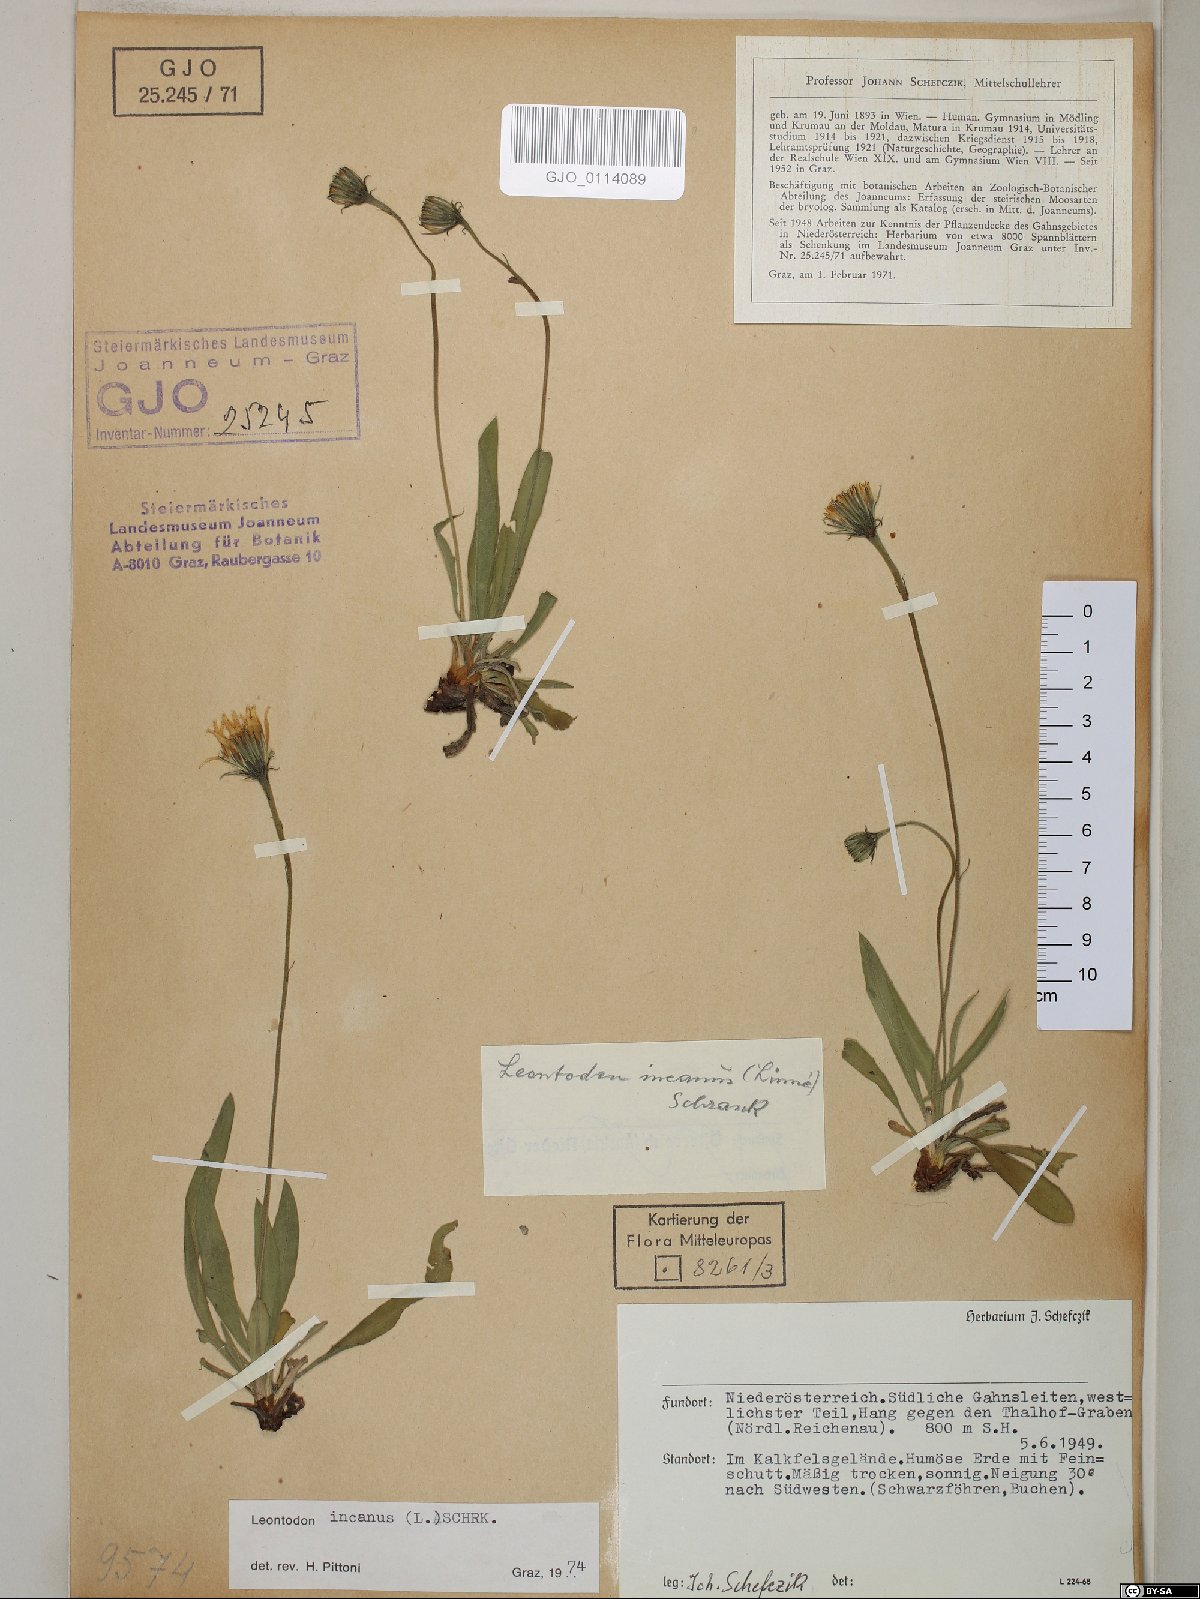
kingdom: Plantae
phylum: Tracheophyta
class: Magnoliopsida
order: Asterales
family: Asteraceae
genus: Leontodon
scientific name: Leontodon incanus
